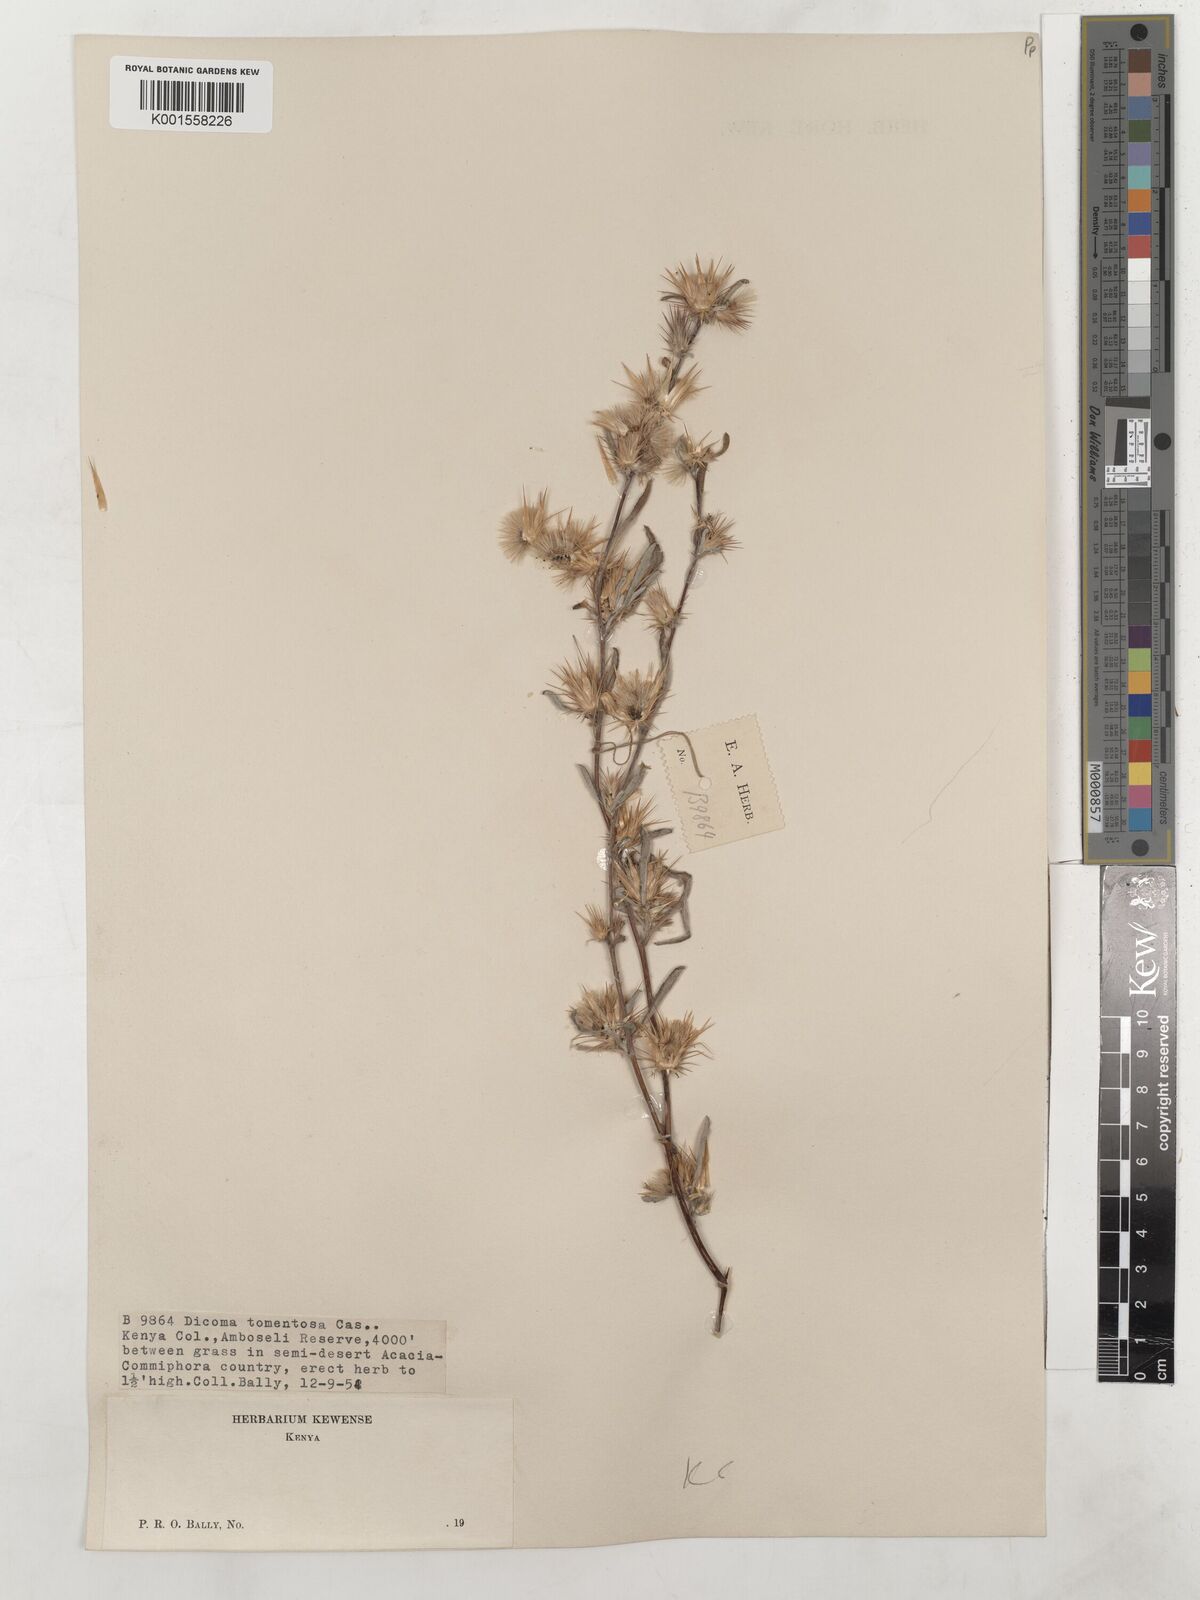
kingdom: Plantae
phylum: Tracheophyta
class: Magnoliopsida
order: Asterales
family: Asteraceae
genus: Dicoma
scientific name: Dicoma tomentosa
